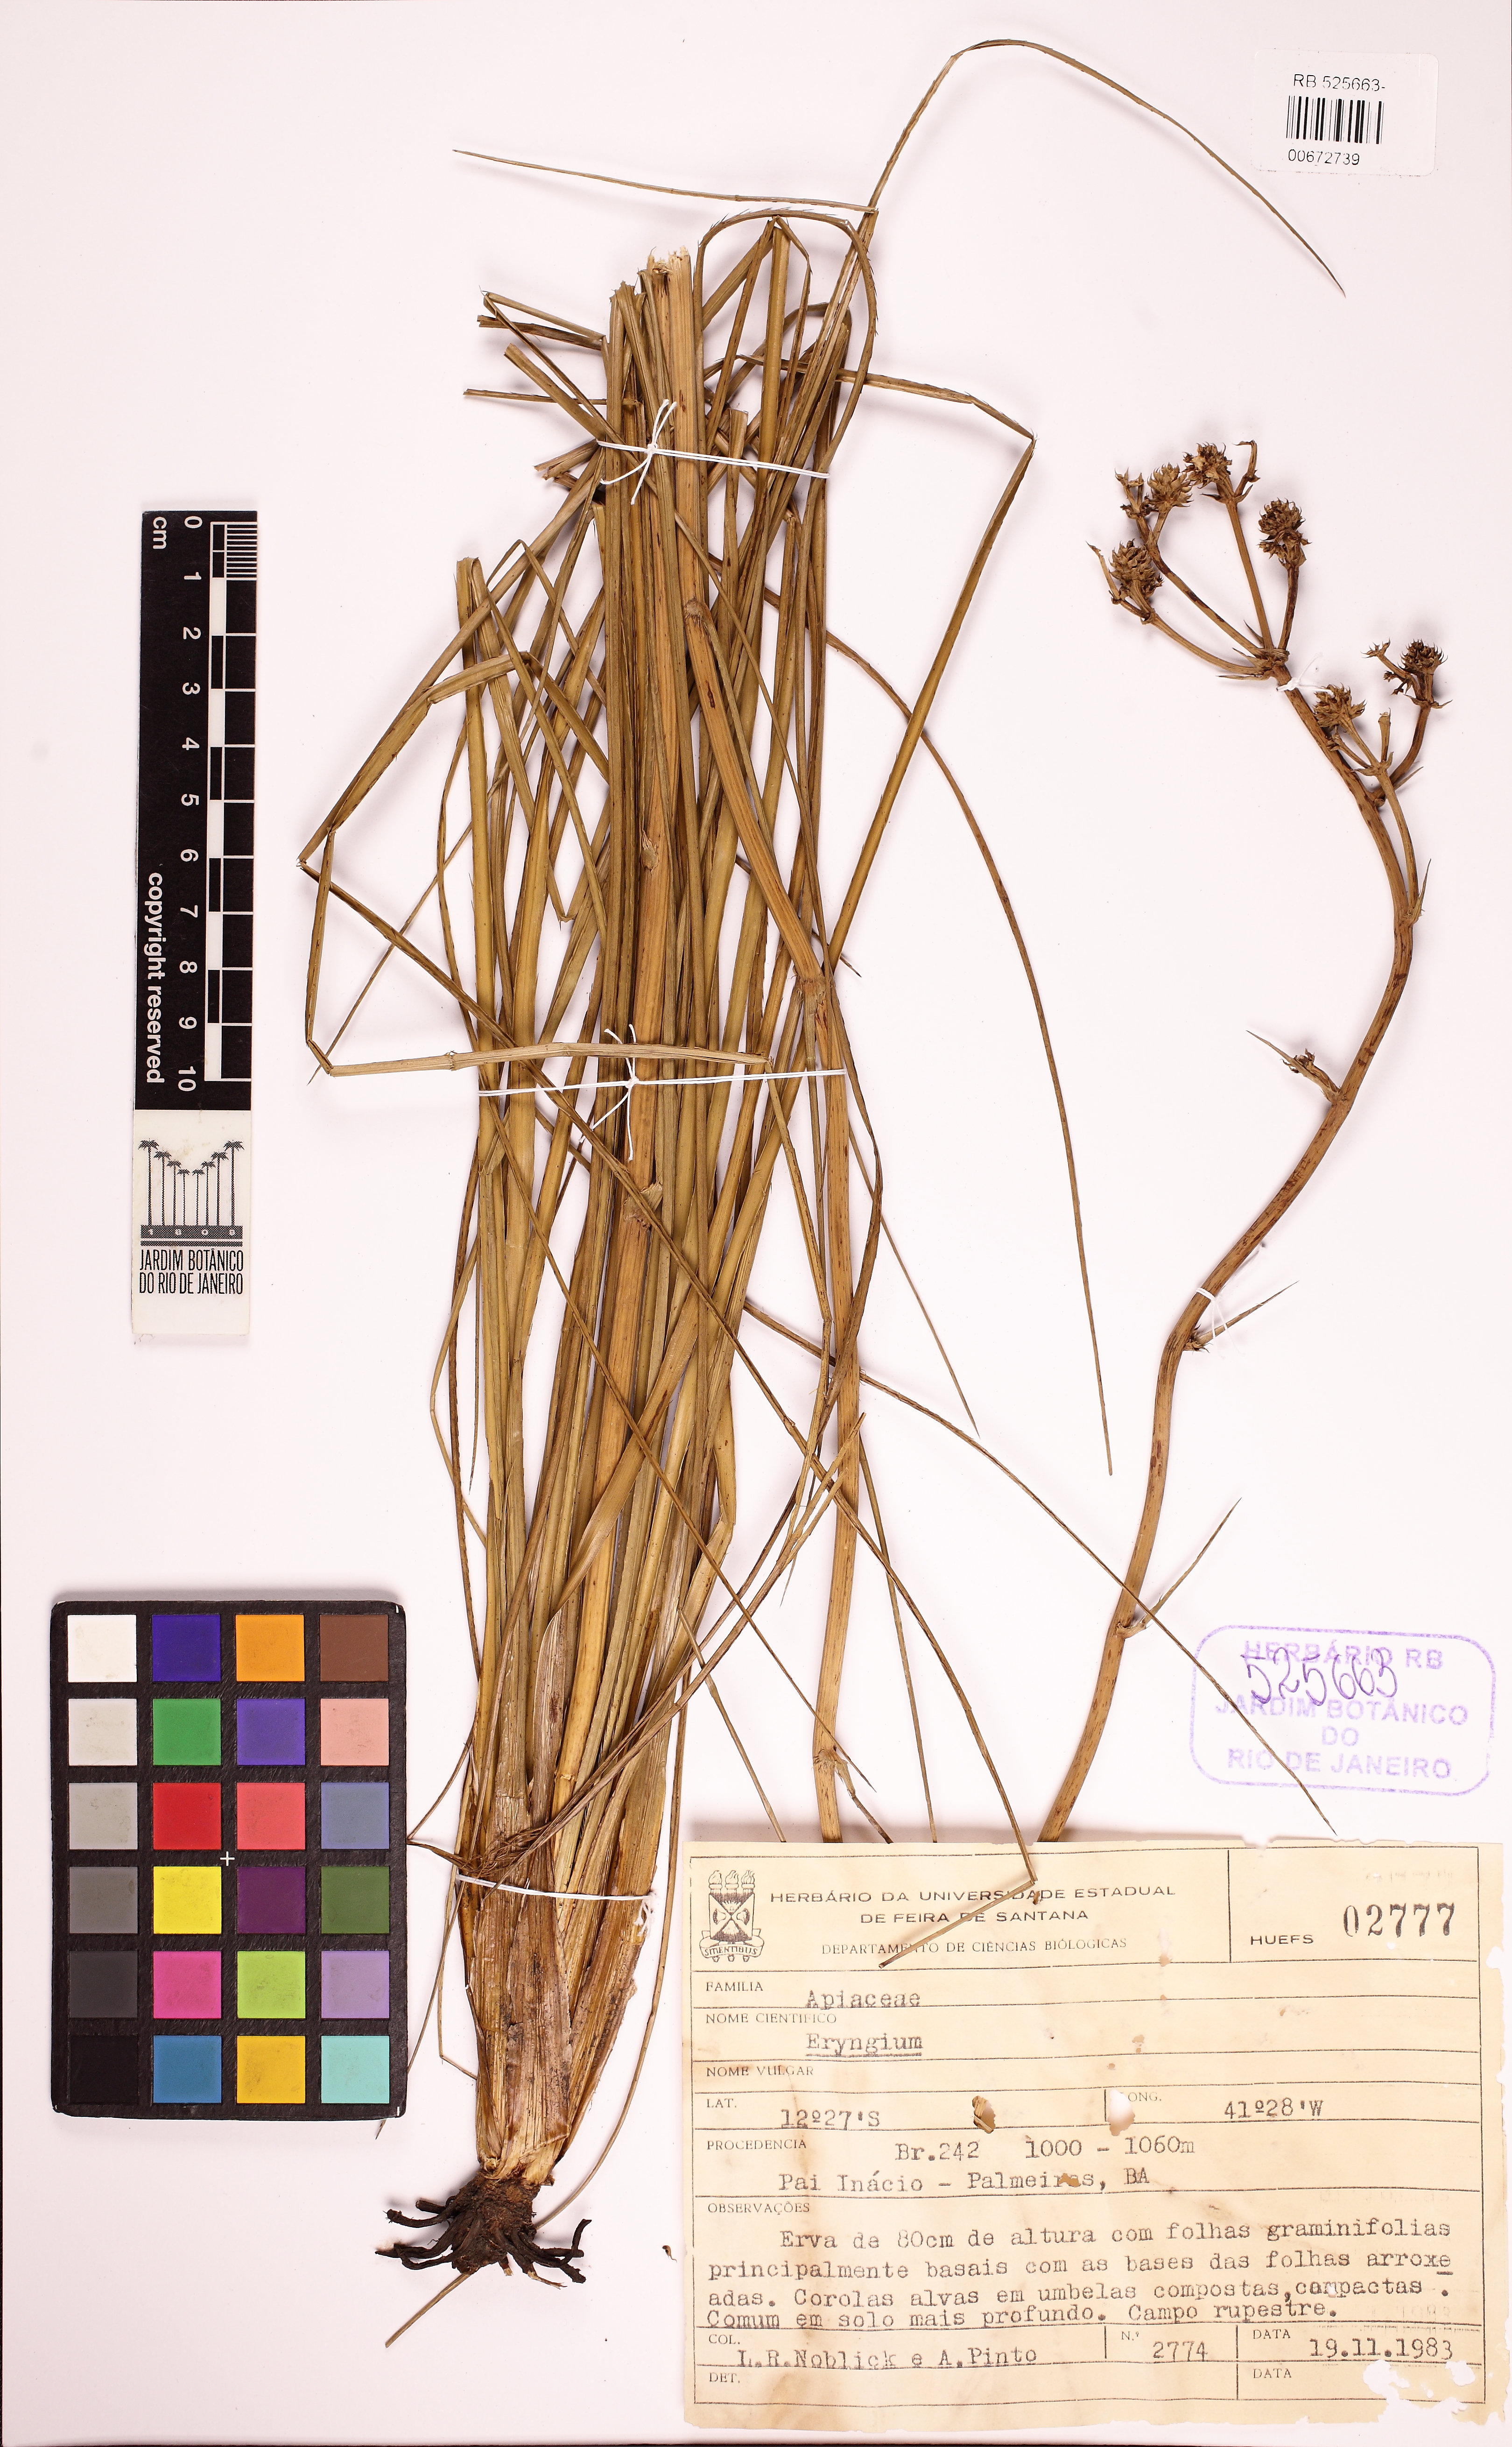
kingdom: Plantae
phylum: Tracheophyta
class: Magnoliopsida
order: Apiales
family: Apiaceae
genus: Eryngium
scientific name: Eryngium juncifolium
